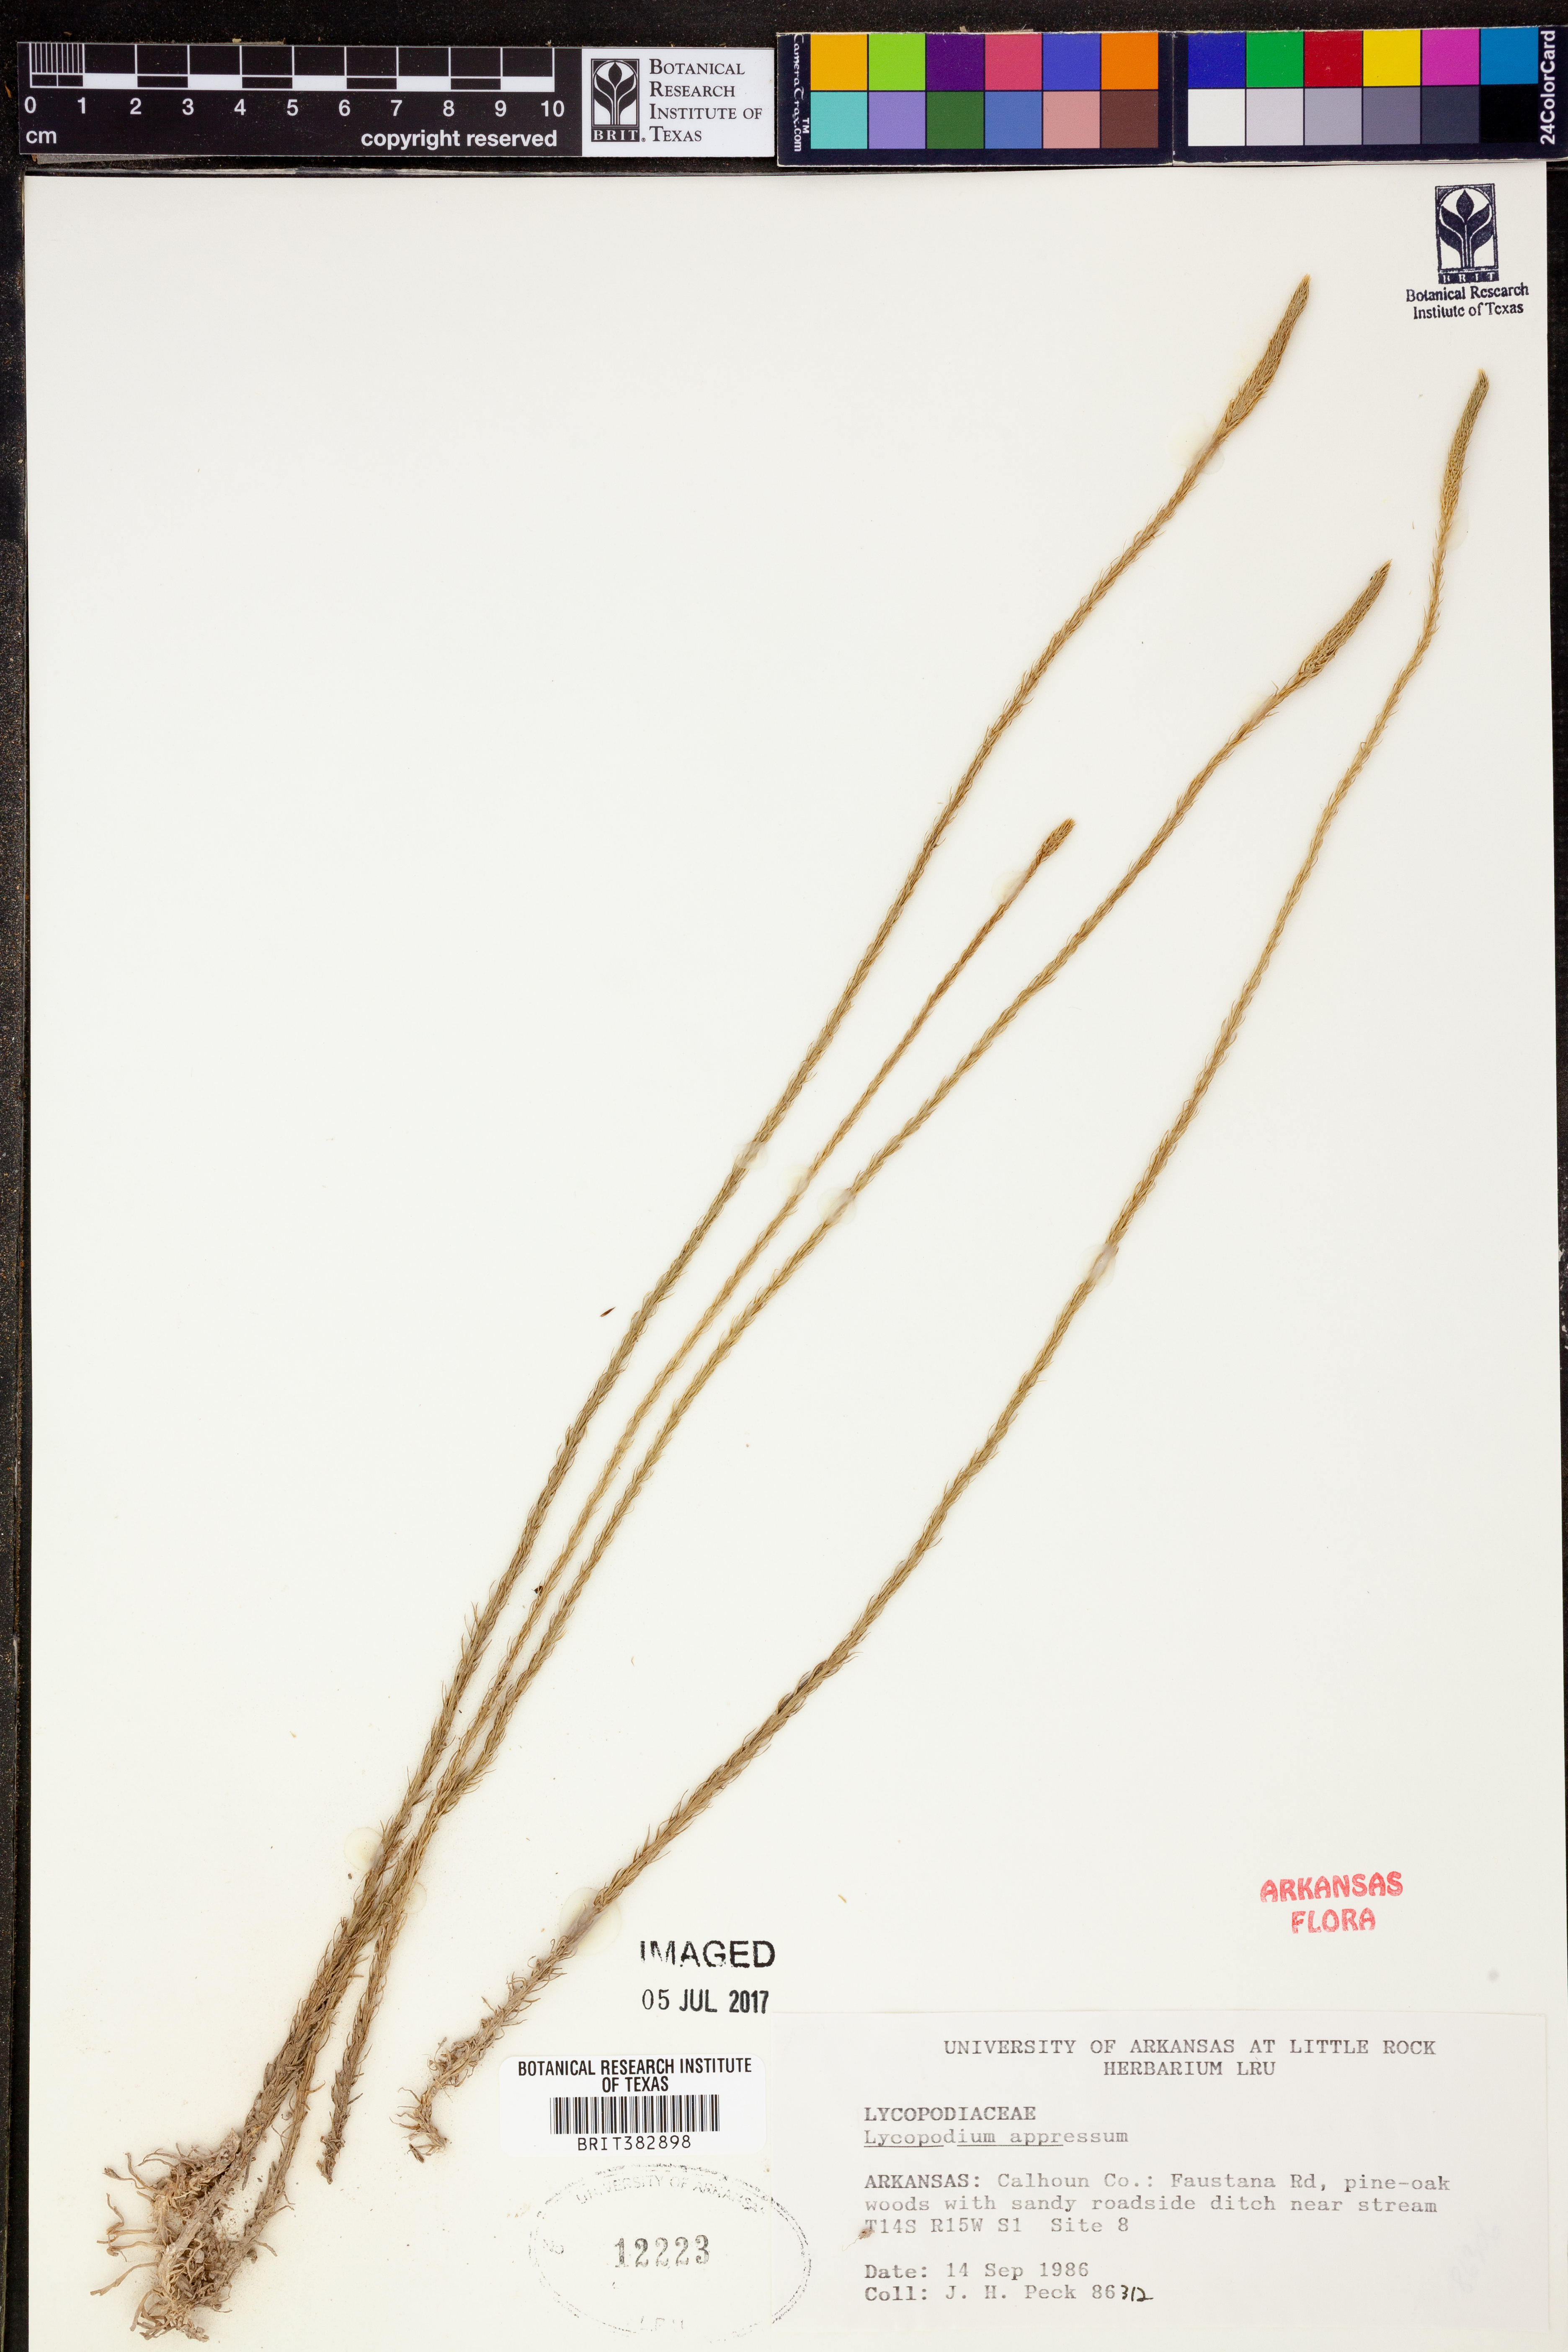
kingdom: Plantae
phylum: Tracheophyta
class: Lycopodiopsida
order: Lycopodiales
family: Lycopodiaceae
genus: Lycopodiella
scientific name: Lycopodiella appressa
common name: Appressed bog clubmoss
